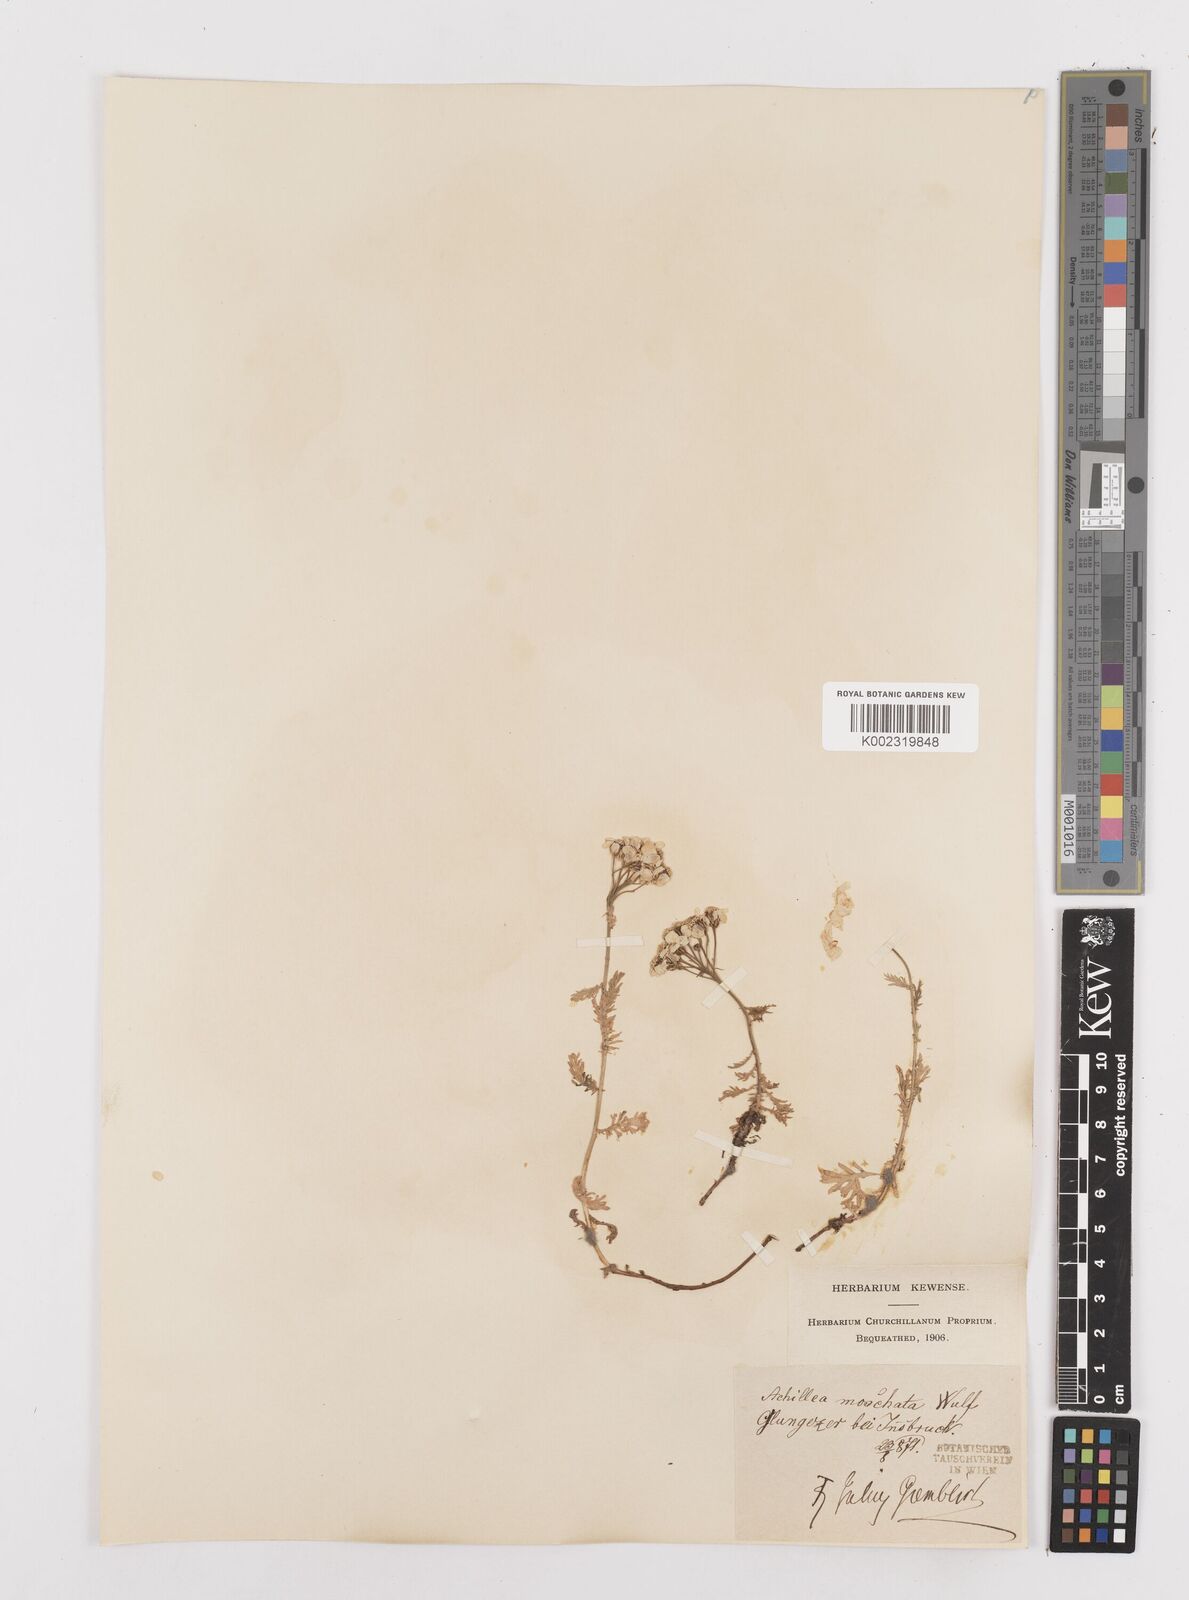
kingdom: Plantae
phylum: Tracheophyta
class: Magnoliopsida
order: Asterales
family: Asteraceae
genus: Achillea
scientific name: Achillea erba-rotta
